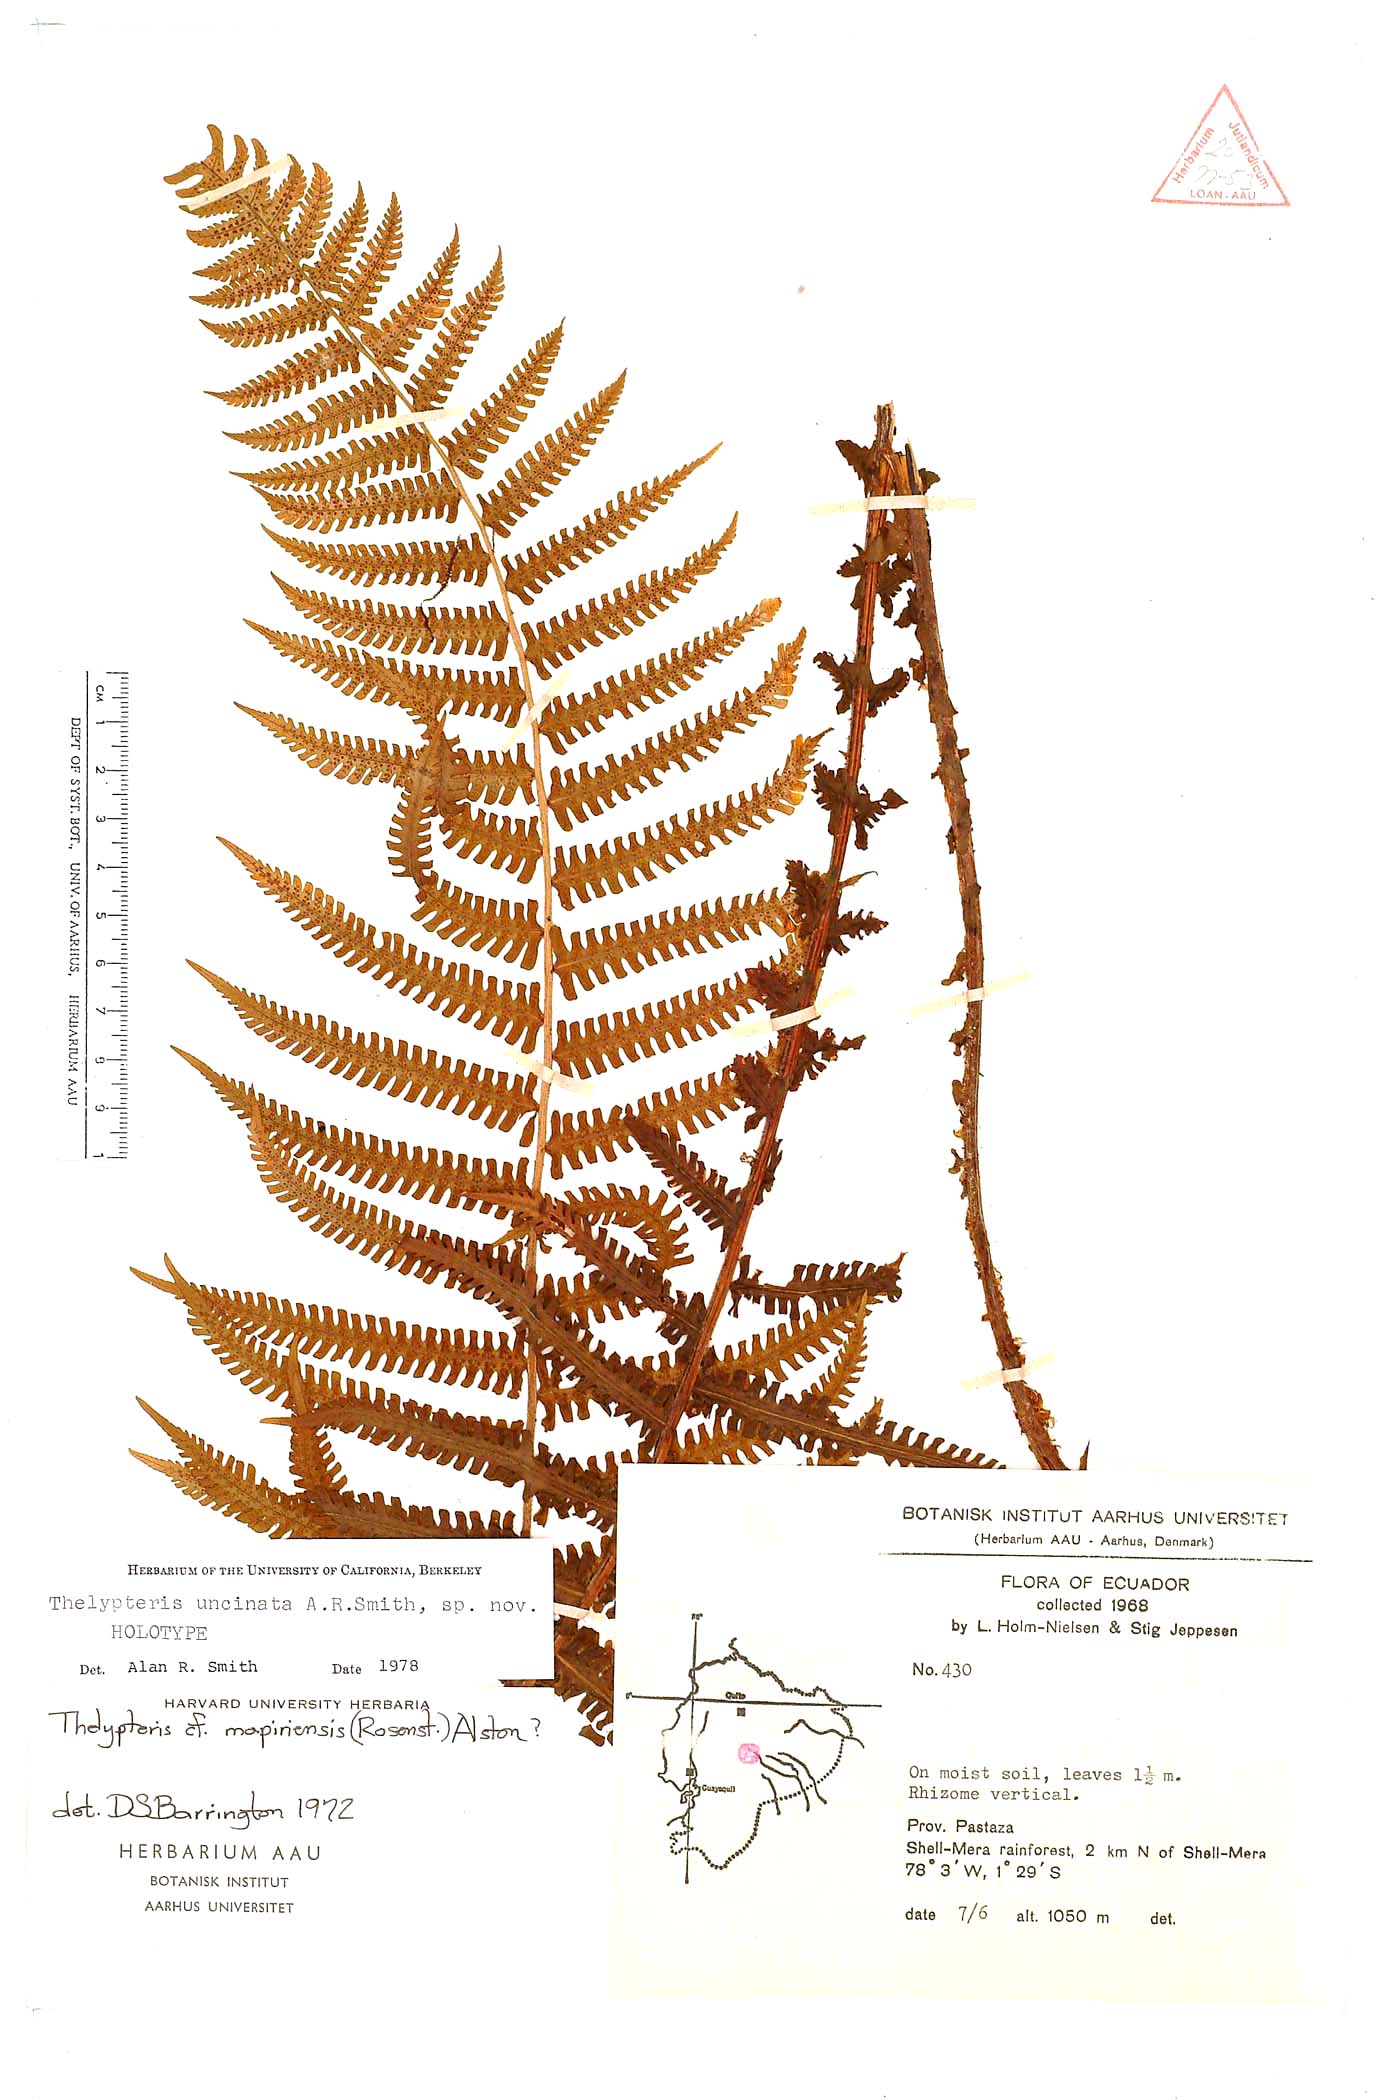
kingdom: Plantae
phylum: Tracheophyta
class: Polypodiopsida
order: Polypodiales
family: Thelypteridaceae
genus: Amauropelta
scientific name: Amauropelta uncinata
